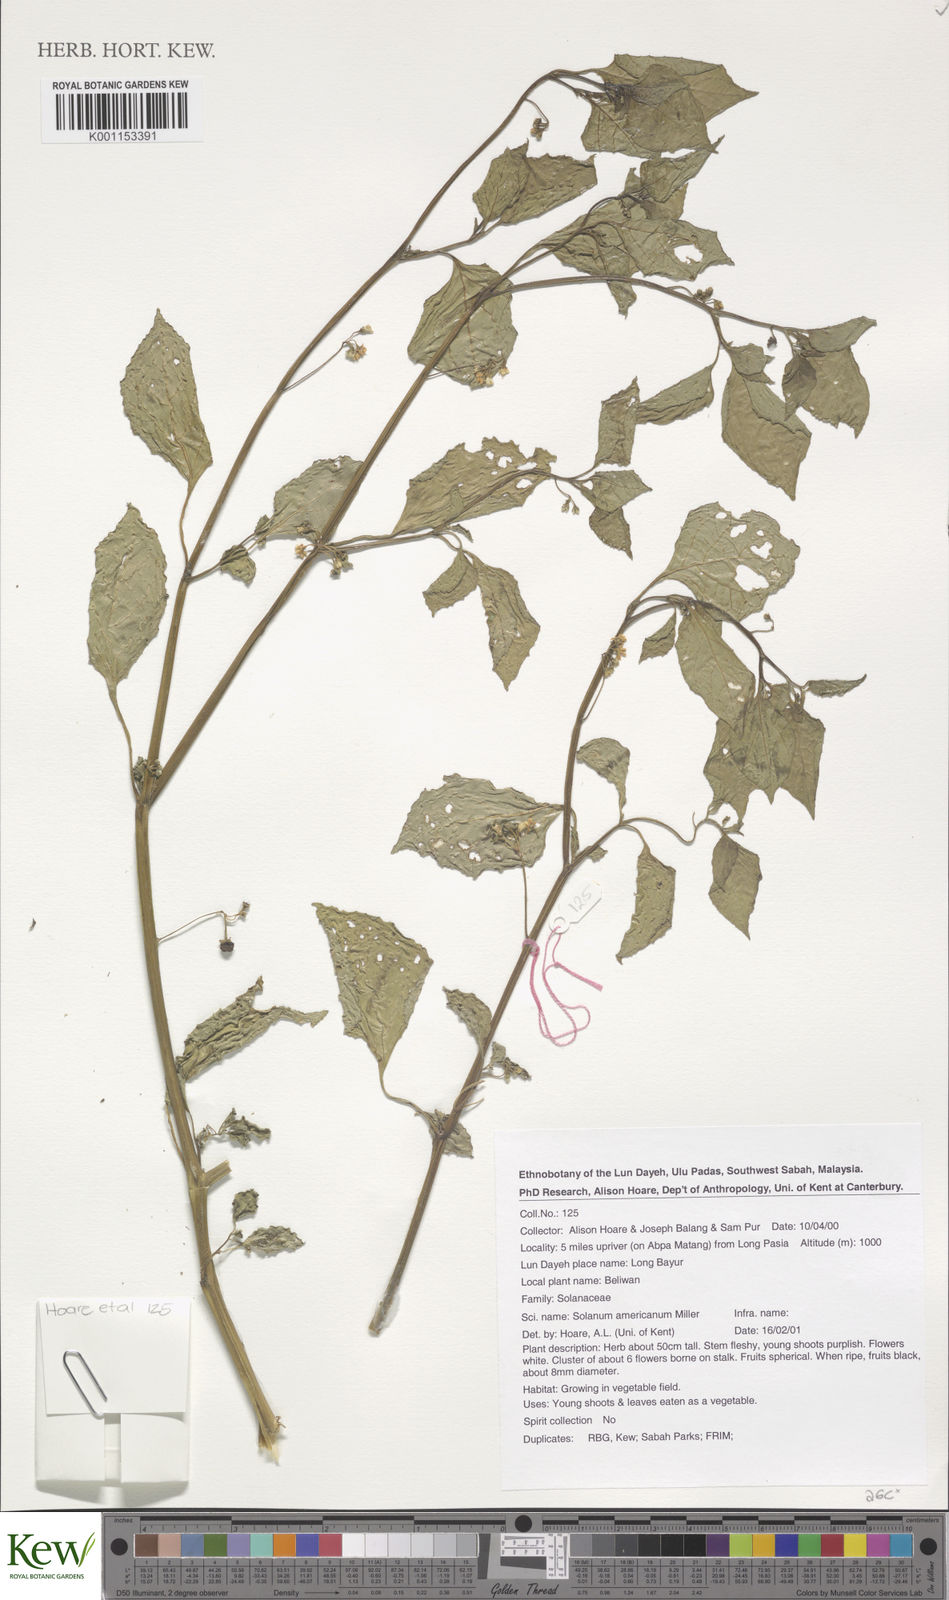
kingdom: Plantae
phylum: Tracheophyta
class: Magnoliopsida
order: Solanales
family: Solanaceae
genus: Solanum
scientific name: Solanum americanum
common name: American black nightshade
